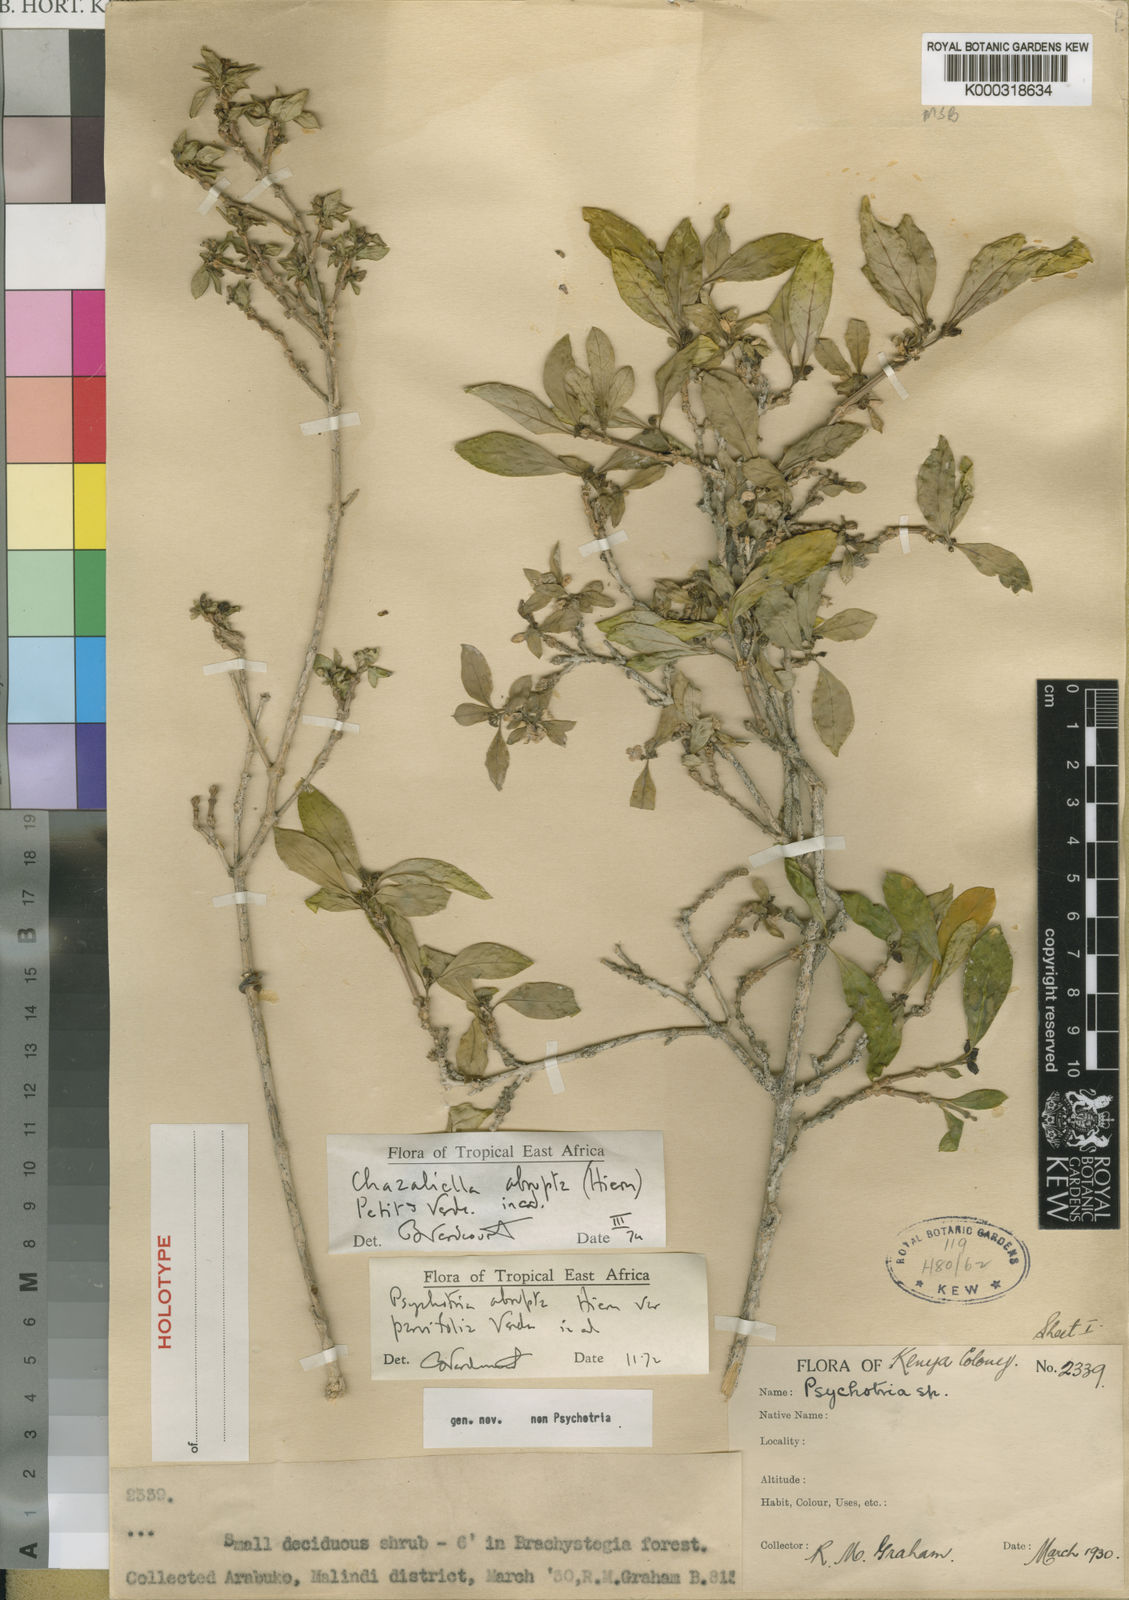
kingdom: Plantae
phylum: Tracheophyta
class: Magnoliopsida
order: Gentianales
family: Rubiaceae
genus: Eumachia
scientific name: Eumachia abrupta
